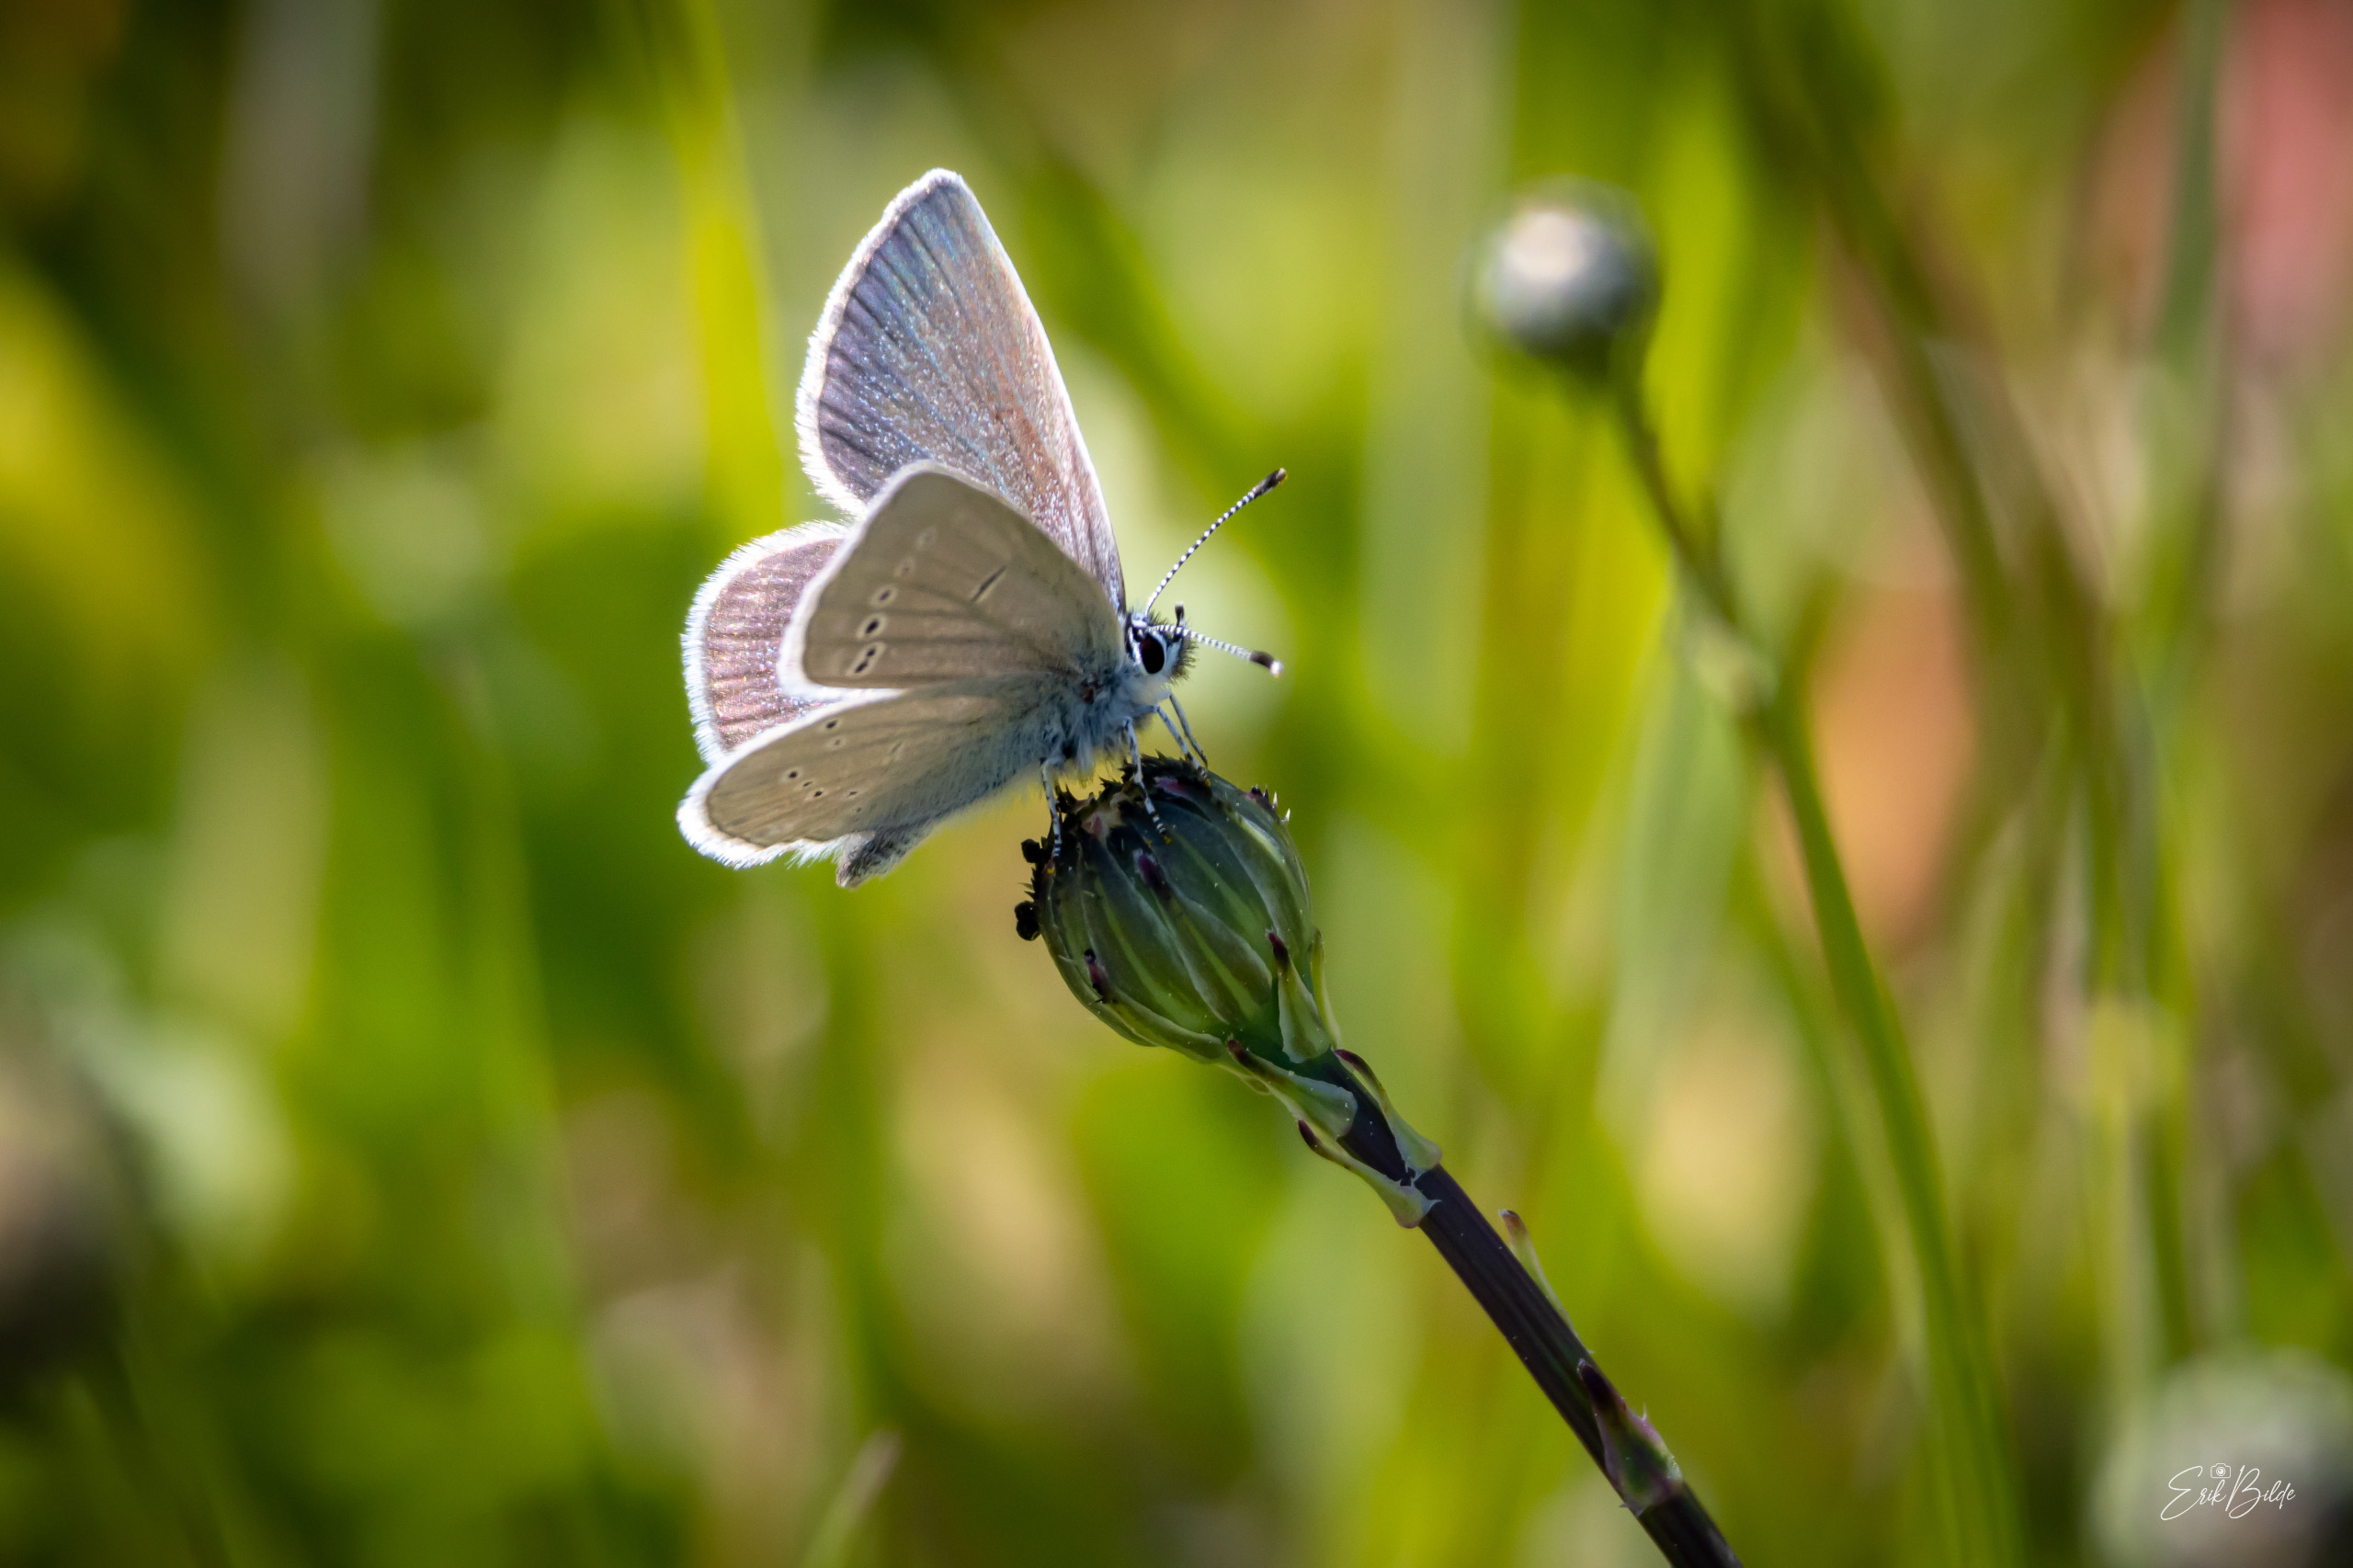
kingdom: Animalia
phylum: Arthropoda
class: Insecta
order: Lepidoptera
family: Lycaenidae
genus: Cupido
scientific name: Cupido minimus
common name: Dværgblåfugl
